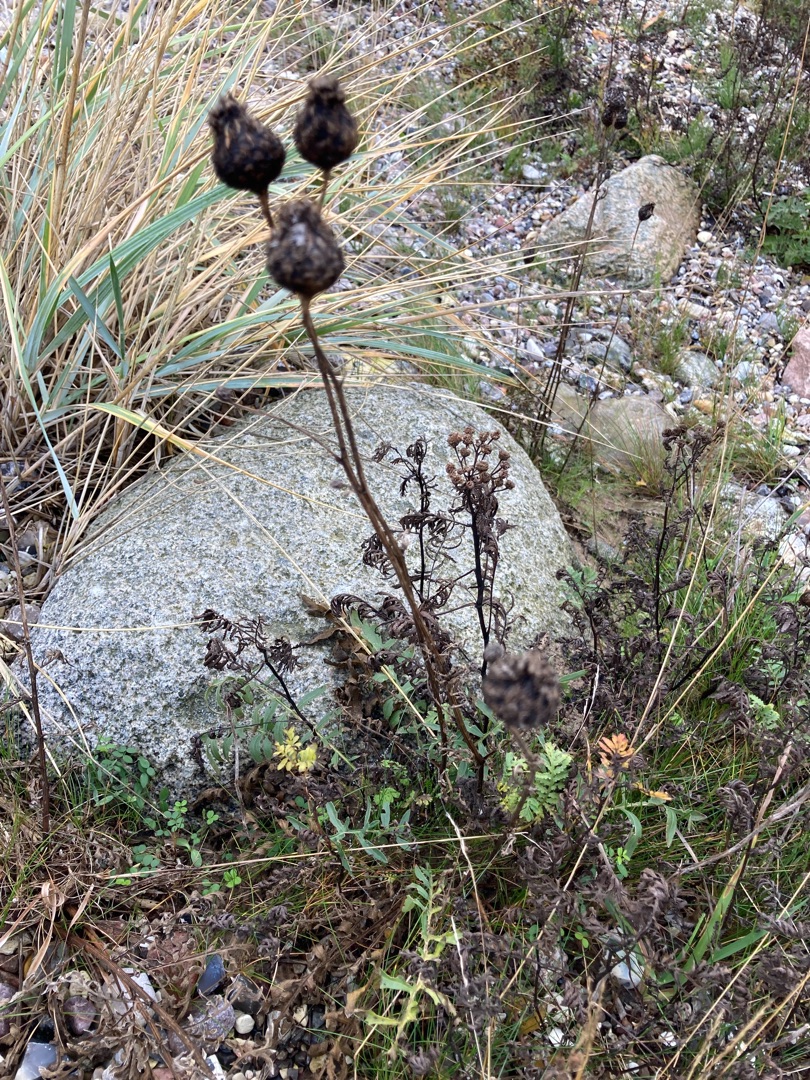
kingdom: Plantae
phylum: Tracheophyta
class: Magnoliopsida
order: Asterales
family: Asteraceae
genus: Centaurea
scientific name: Centaurea scabiosa
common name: Stor knopurt
